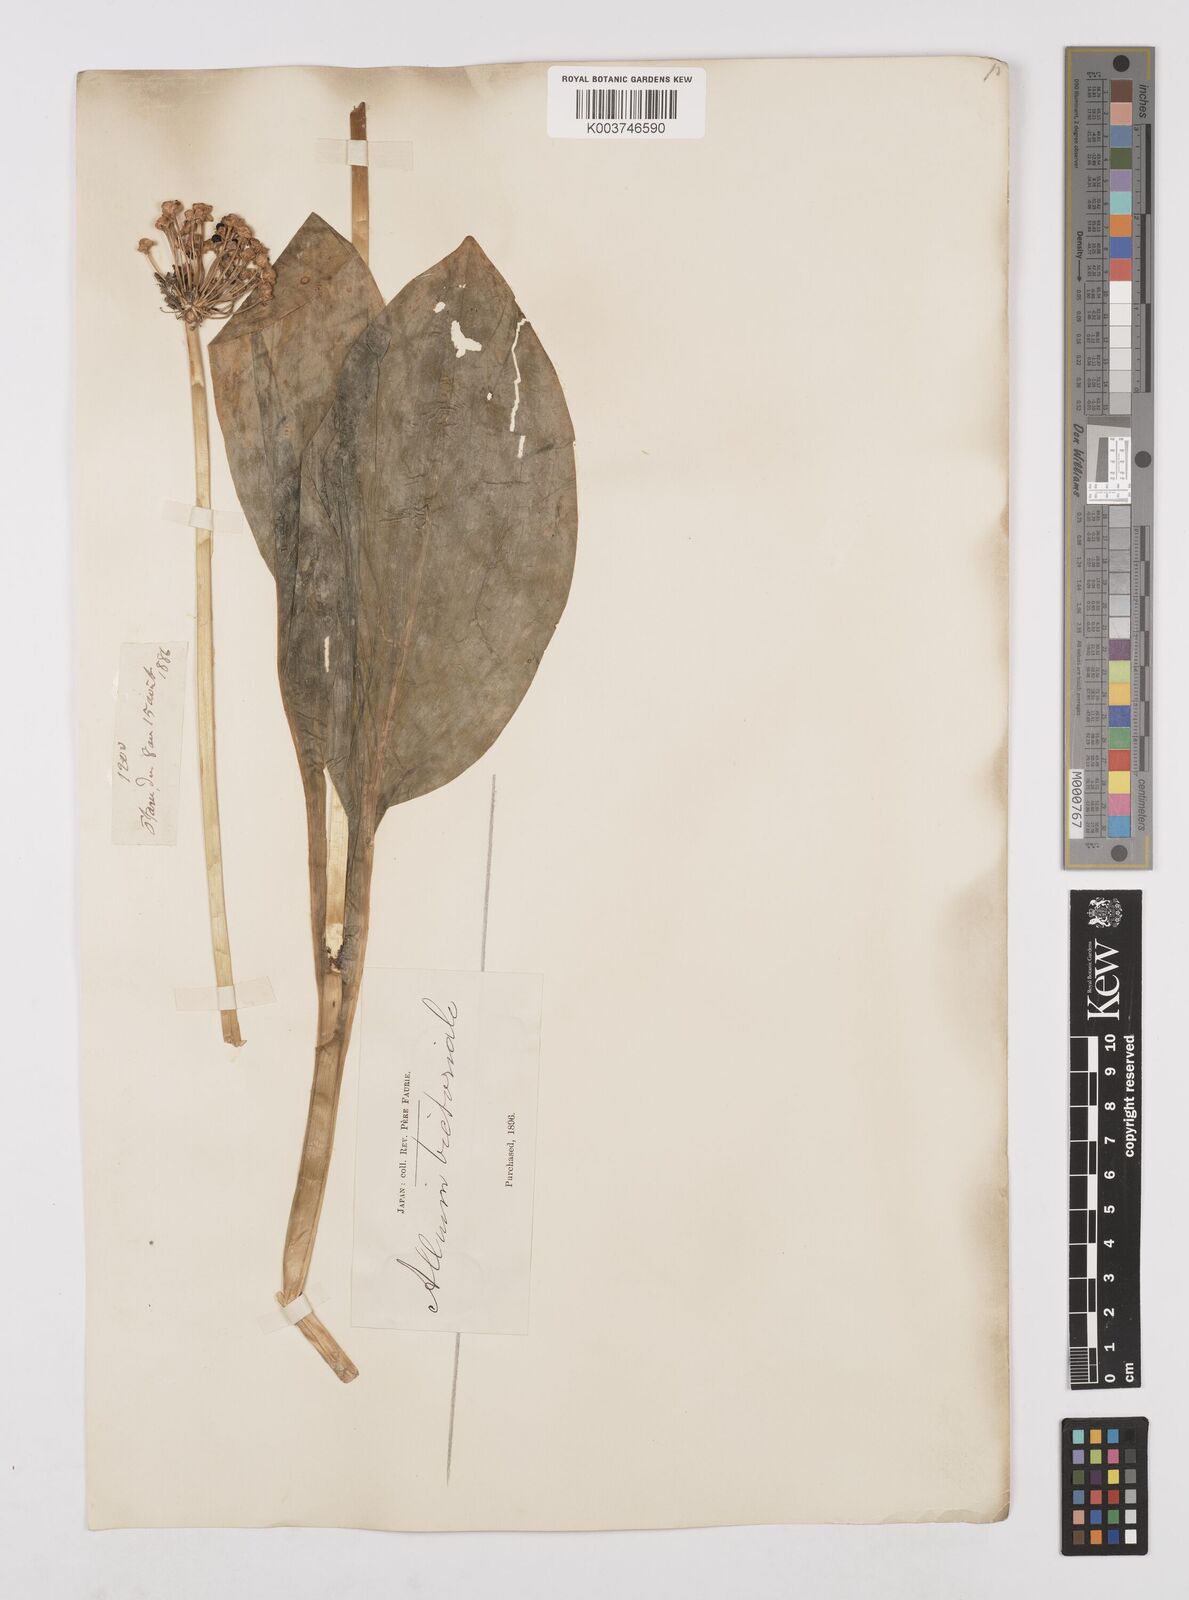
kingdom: Plantae
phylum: Tracheophyta
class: Liliopsida
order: Asparagales
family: Amaryllidaceae
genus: Allium
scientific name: Allium victorialis
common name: Alpine leek
